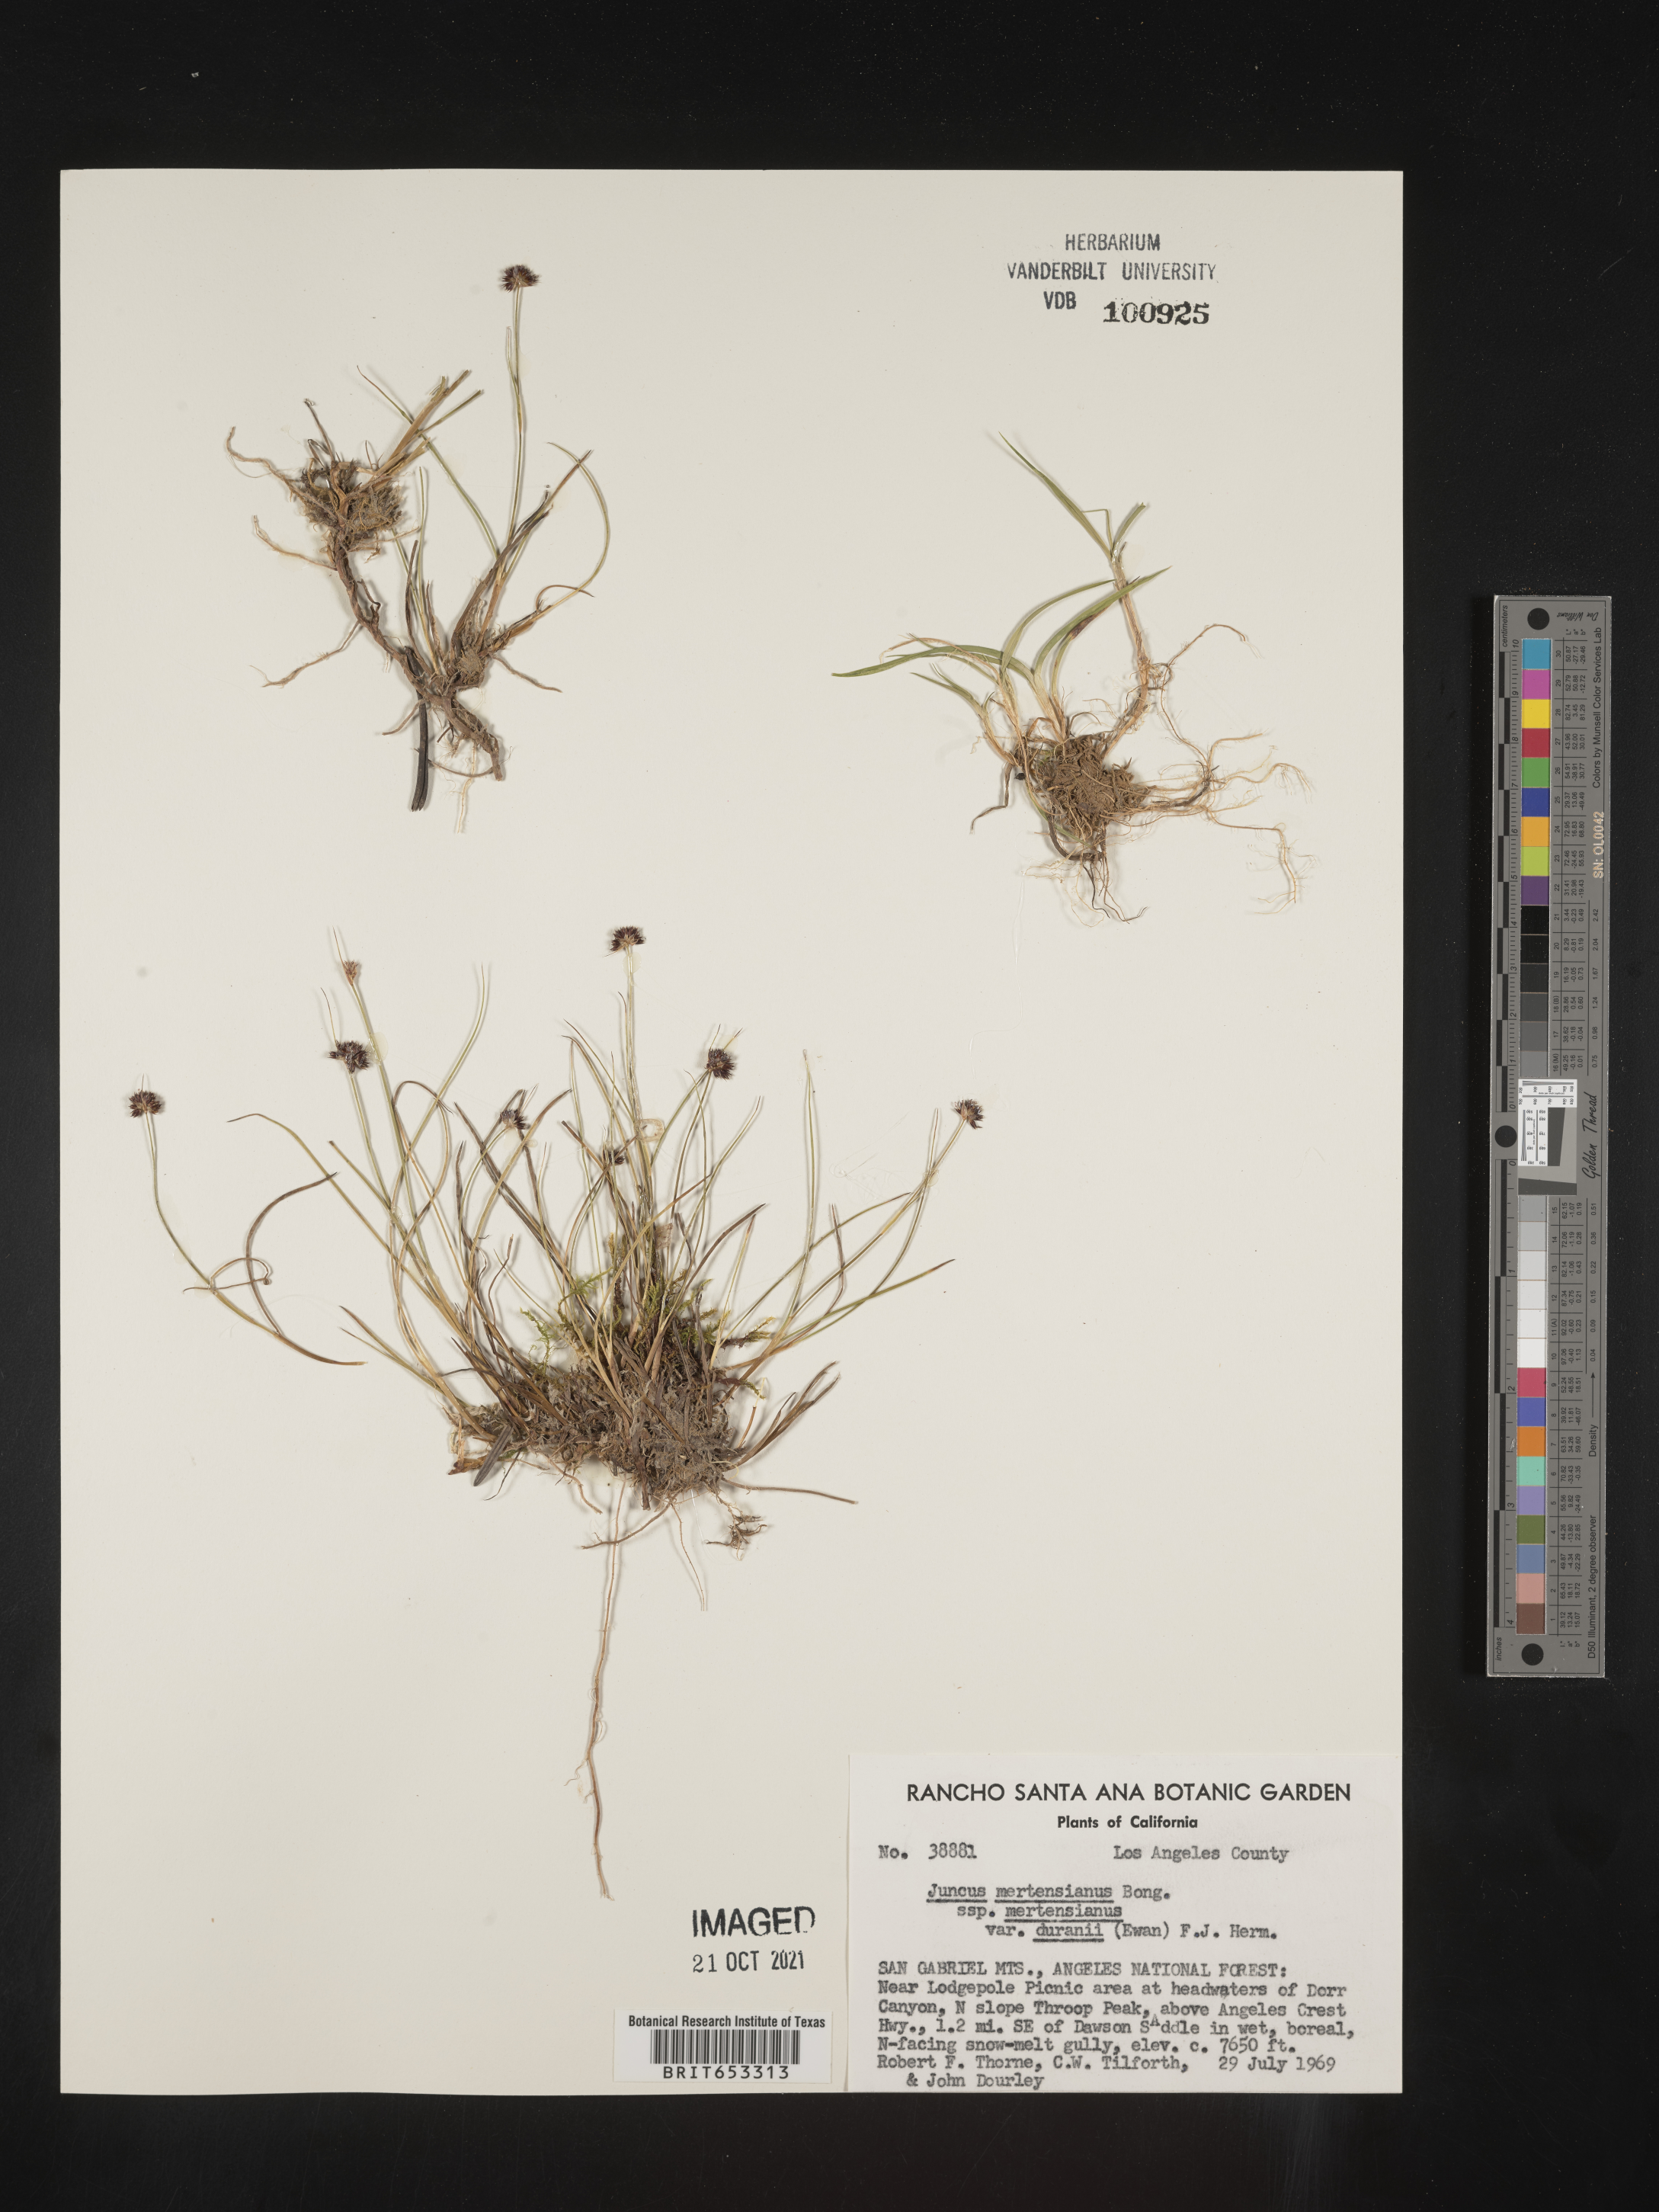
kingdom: Plantae
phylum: Tracheophyta
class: Liliopsida
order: Poales
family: Juncaceae
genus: Juncus
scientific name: Juncus mertensianus
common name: Merten's rush
